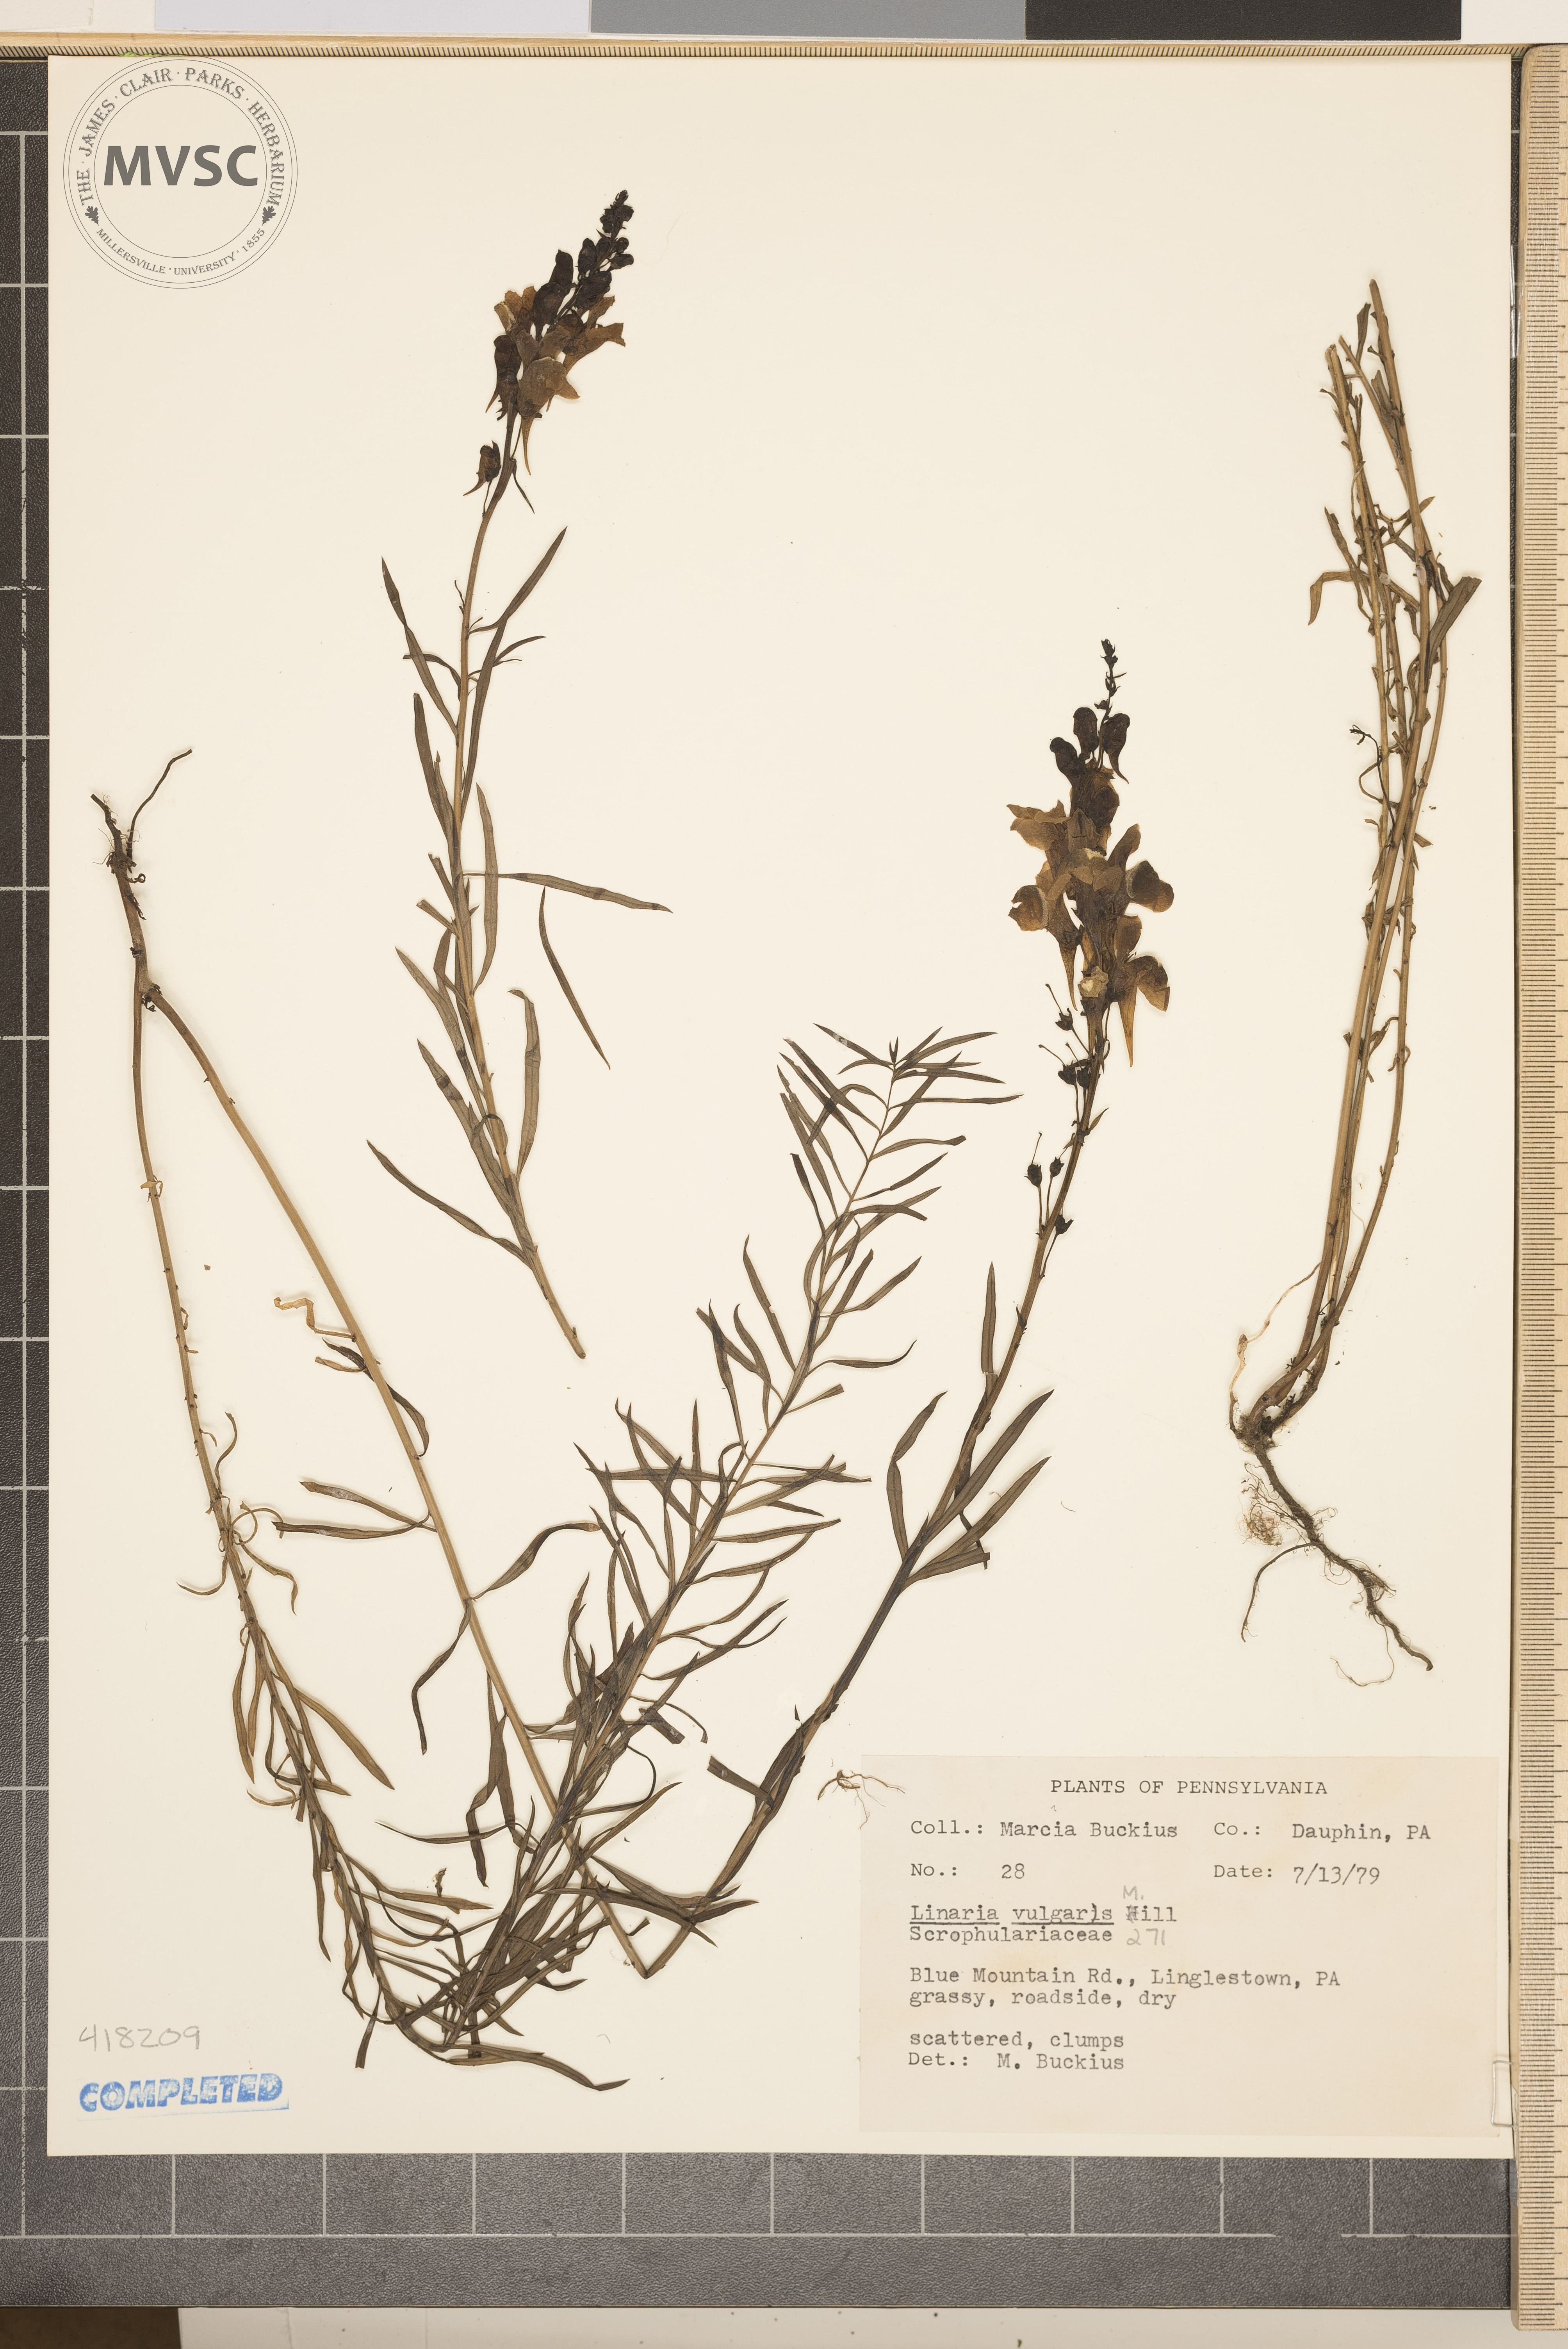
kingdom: Plantae
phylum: Tracheophyta
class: Magnoliopsida
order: Lamiales
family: Plantaginaceae
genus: Linaria
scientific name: Linaria vulgaris
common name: Common Toadflax
